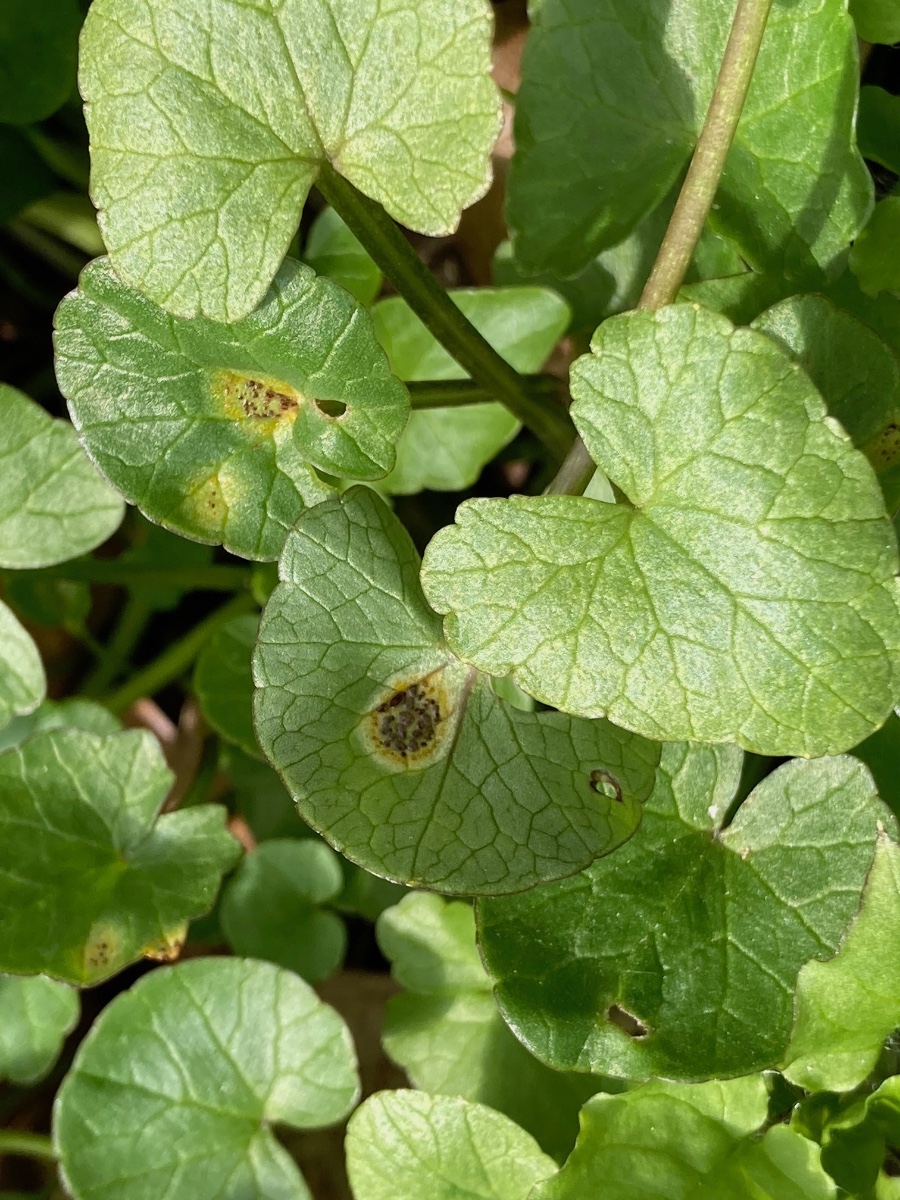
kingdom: Fungi
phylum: Basidiomycota
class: Pucciniomycetes
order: Pucciniales
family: Pucciniaceae
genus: Uromyces
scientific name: Uromyces ficariae
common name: vorterod-encellerust
